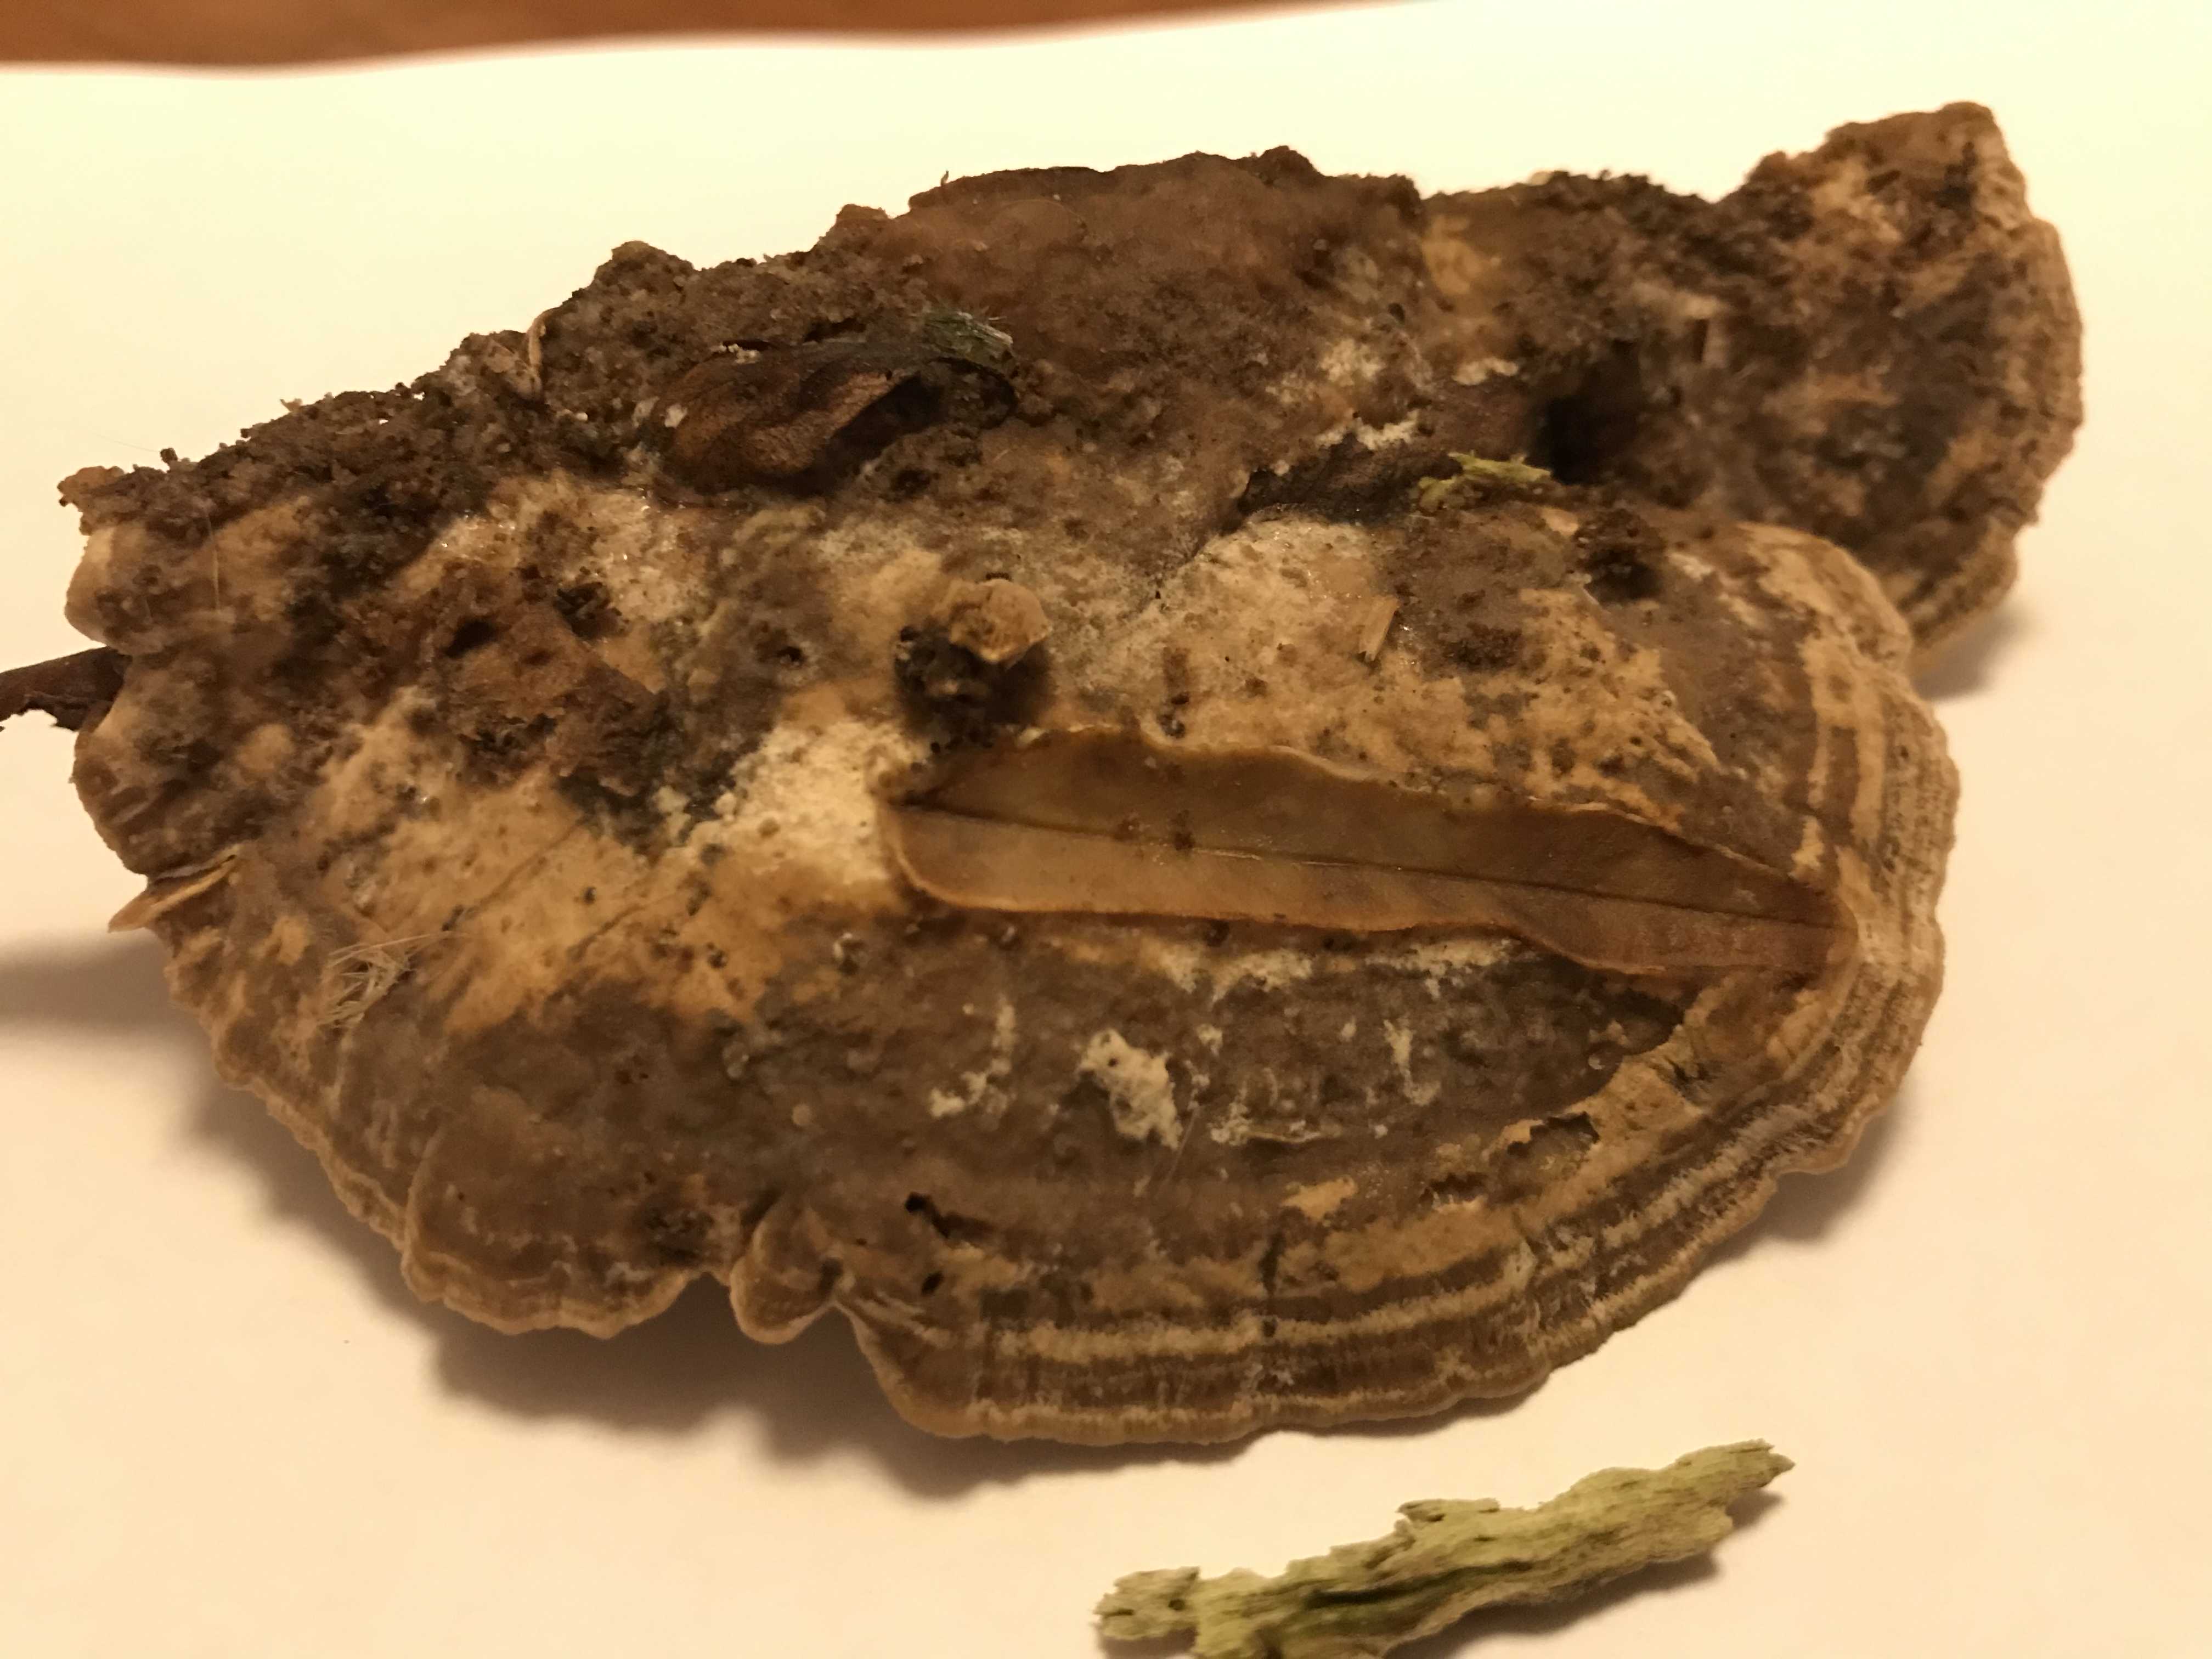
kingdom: Fungi
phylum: Basidiomycota
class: Agaricomycetes
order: Polyporales
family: Phanerochaetaceae
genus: Bjerkandera
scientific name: Bjerkandera fumosa
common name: grågul sodporesvamp
